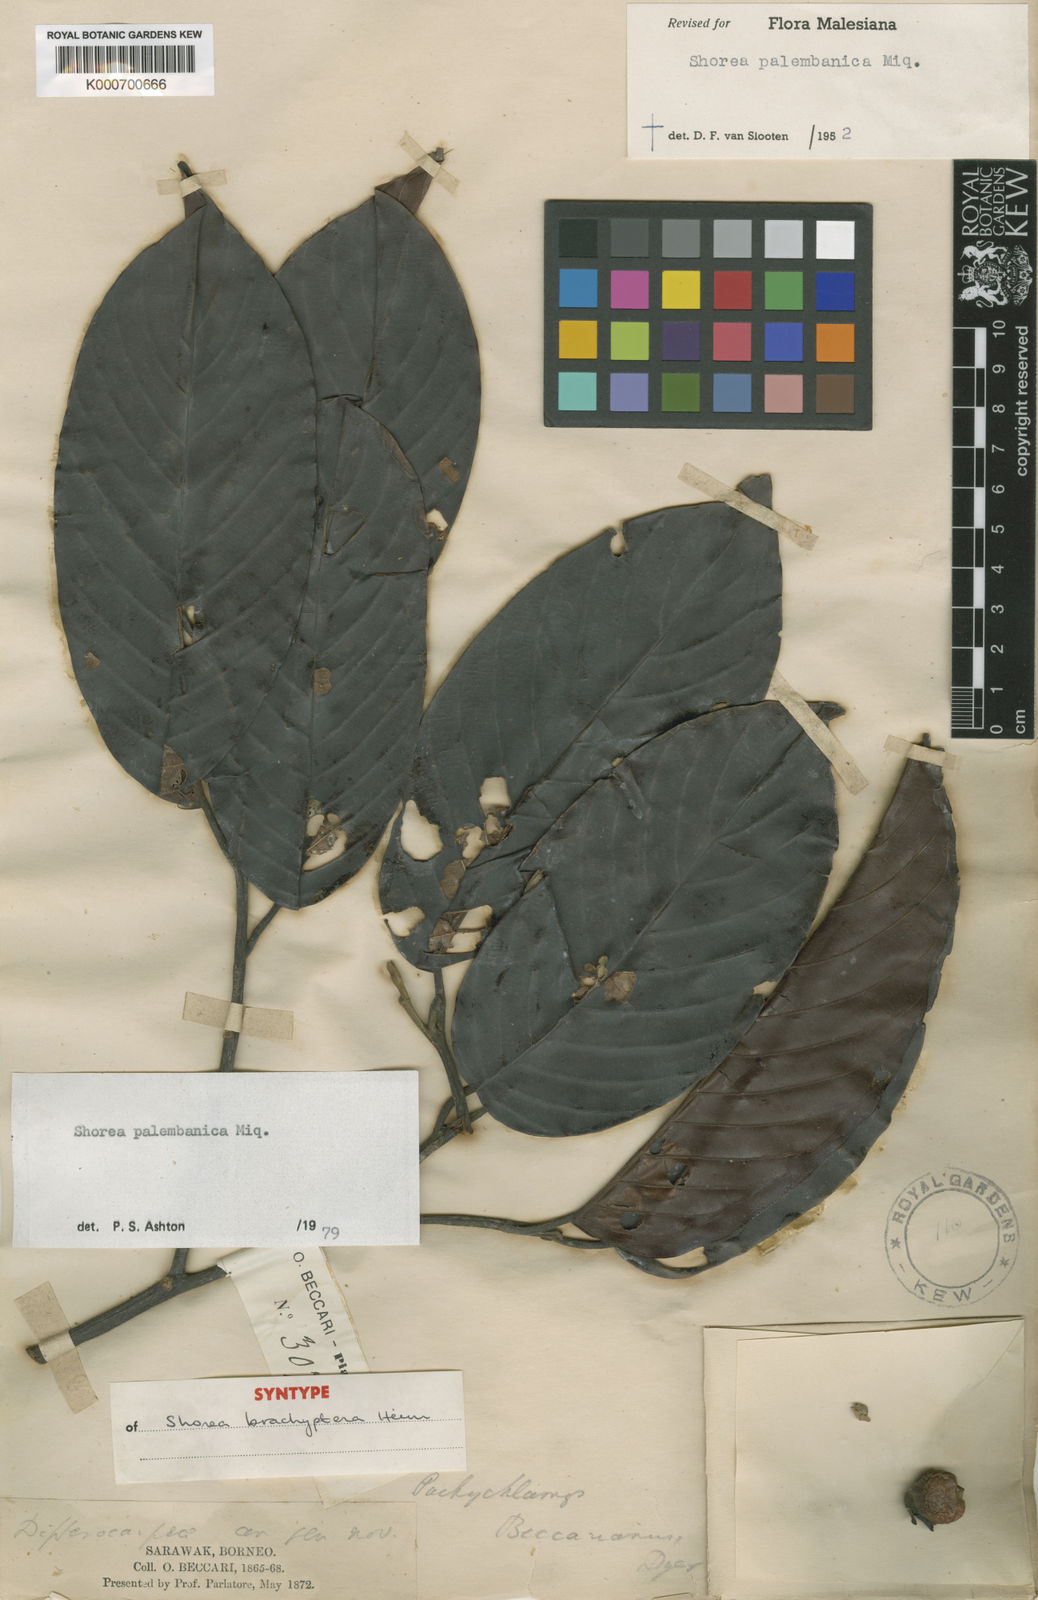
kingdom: Plantae
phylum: Tracheophyta
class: Magnoliopsida
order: Malvales
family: Dipterocarpaceae
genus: Shorea
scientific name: Shorea palembanica
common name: Light red meranti
